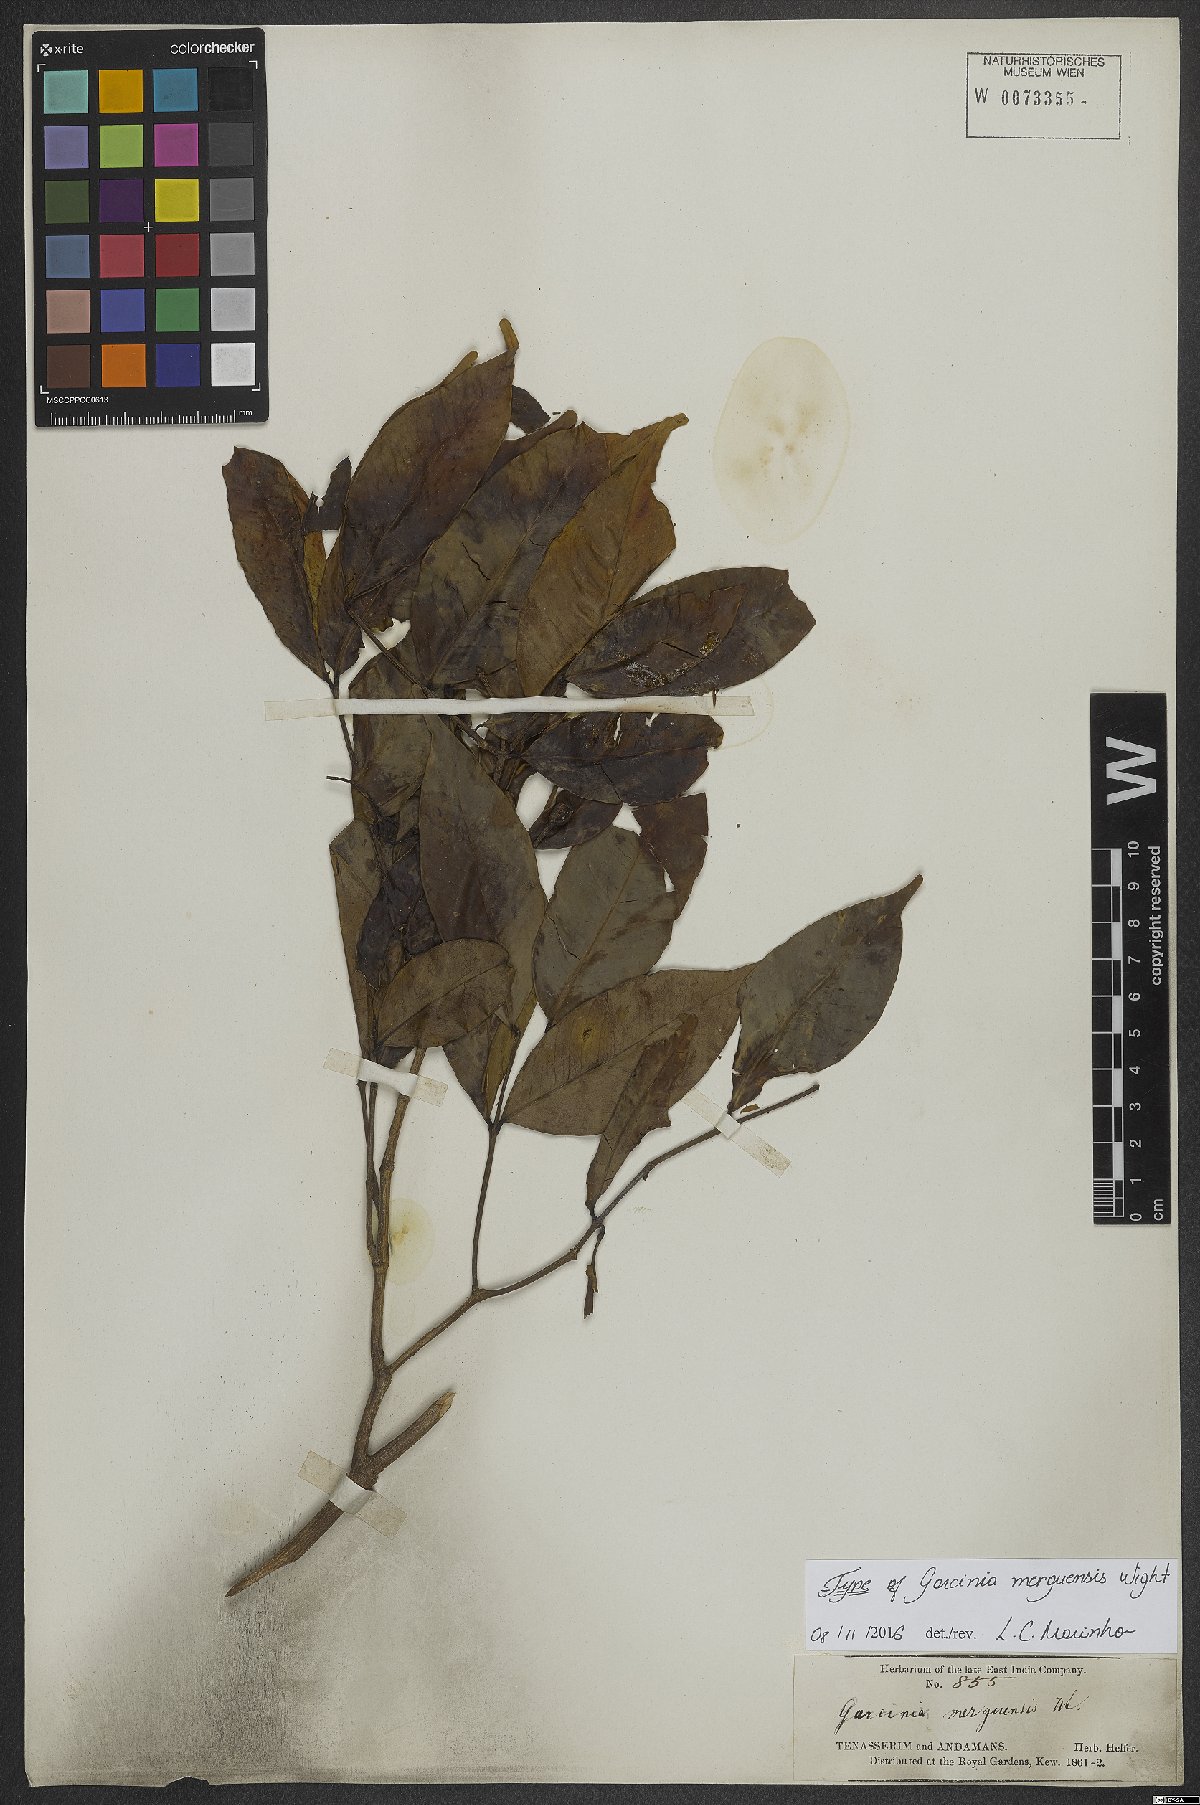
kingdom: Plantae
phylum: Tracheophyta
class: Magnoliopsida
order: Malpighiales
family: Clusiaceae
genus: Garcinia
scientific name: Garcinia merguensis
